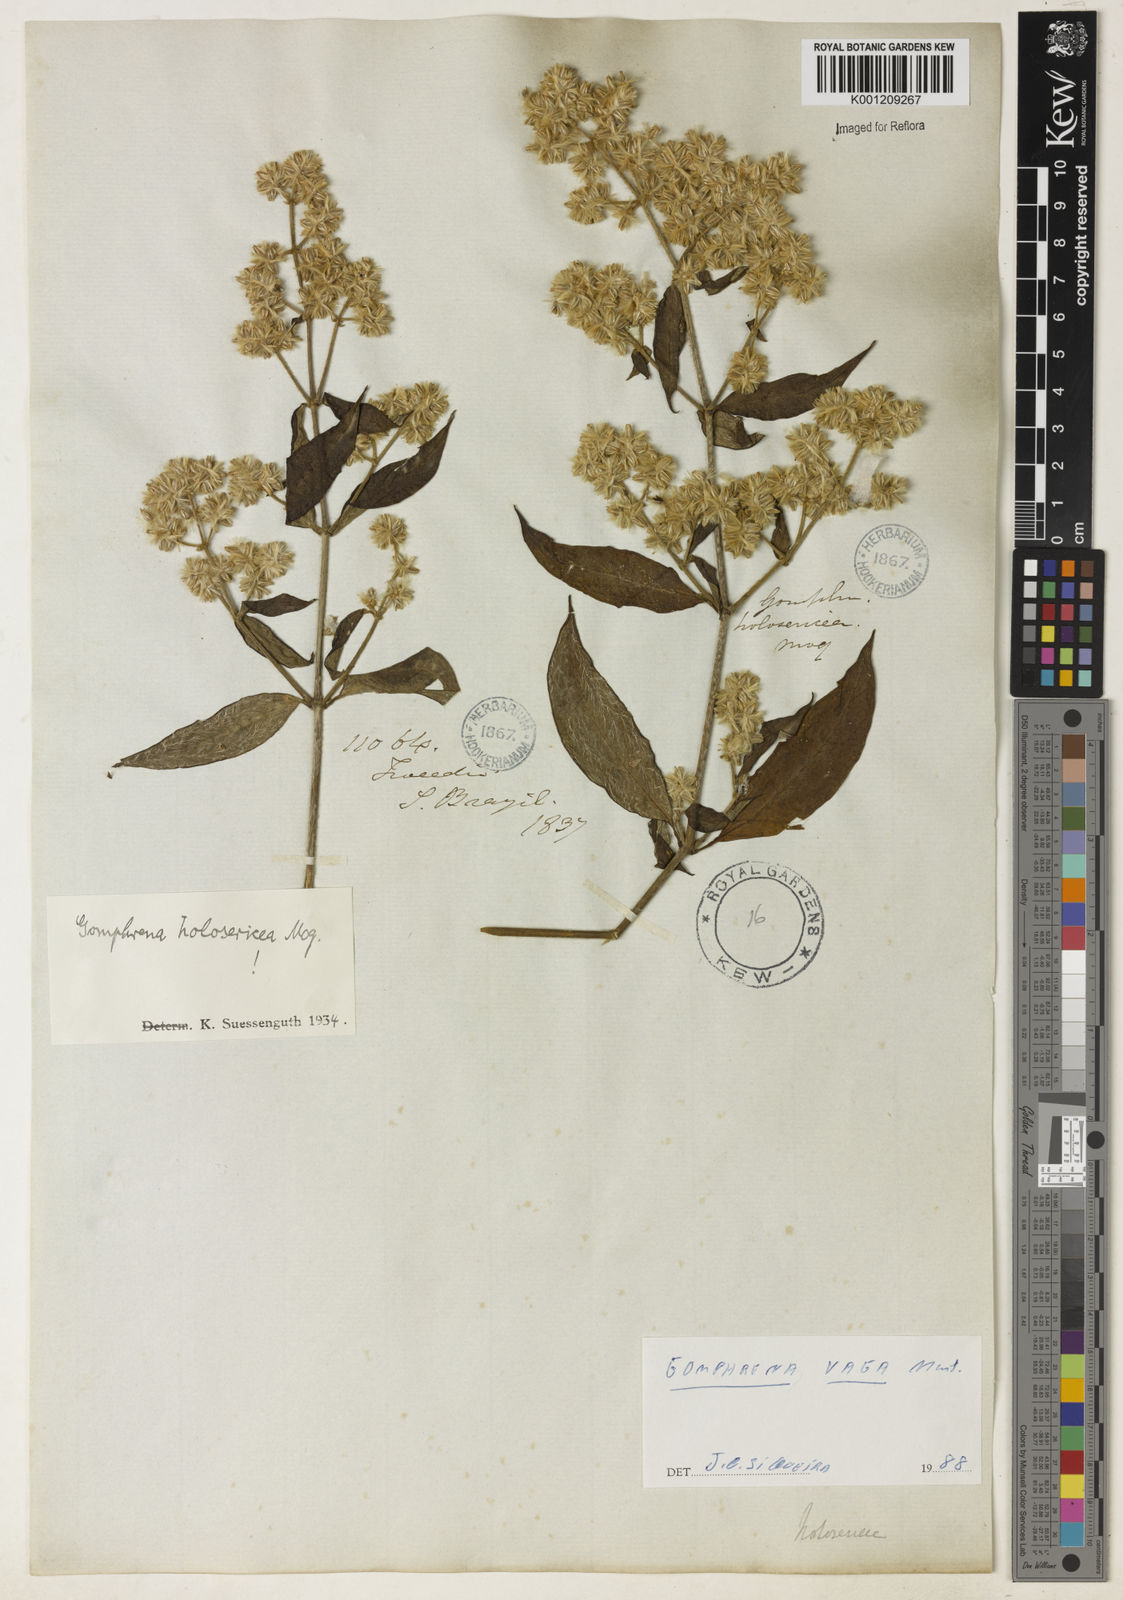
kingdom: Plantae
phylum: Tracheophyta
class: Magnoliopsida
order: Caryophyllales
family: Amaranthaceae
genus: Gomphrena
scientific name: Gomphrena vaga
